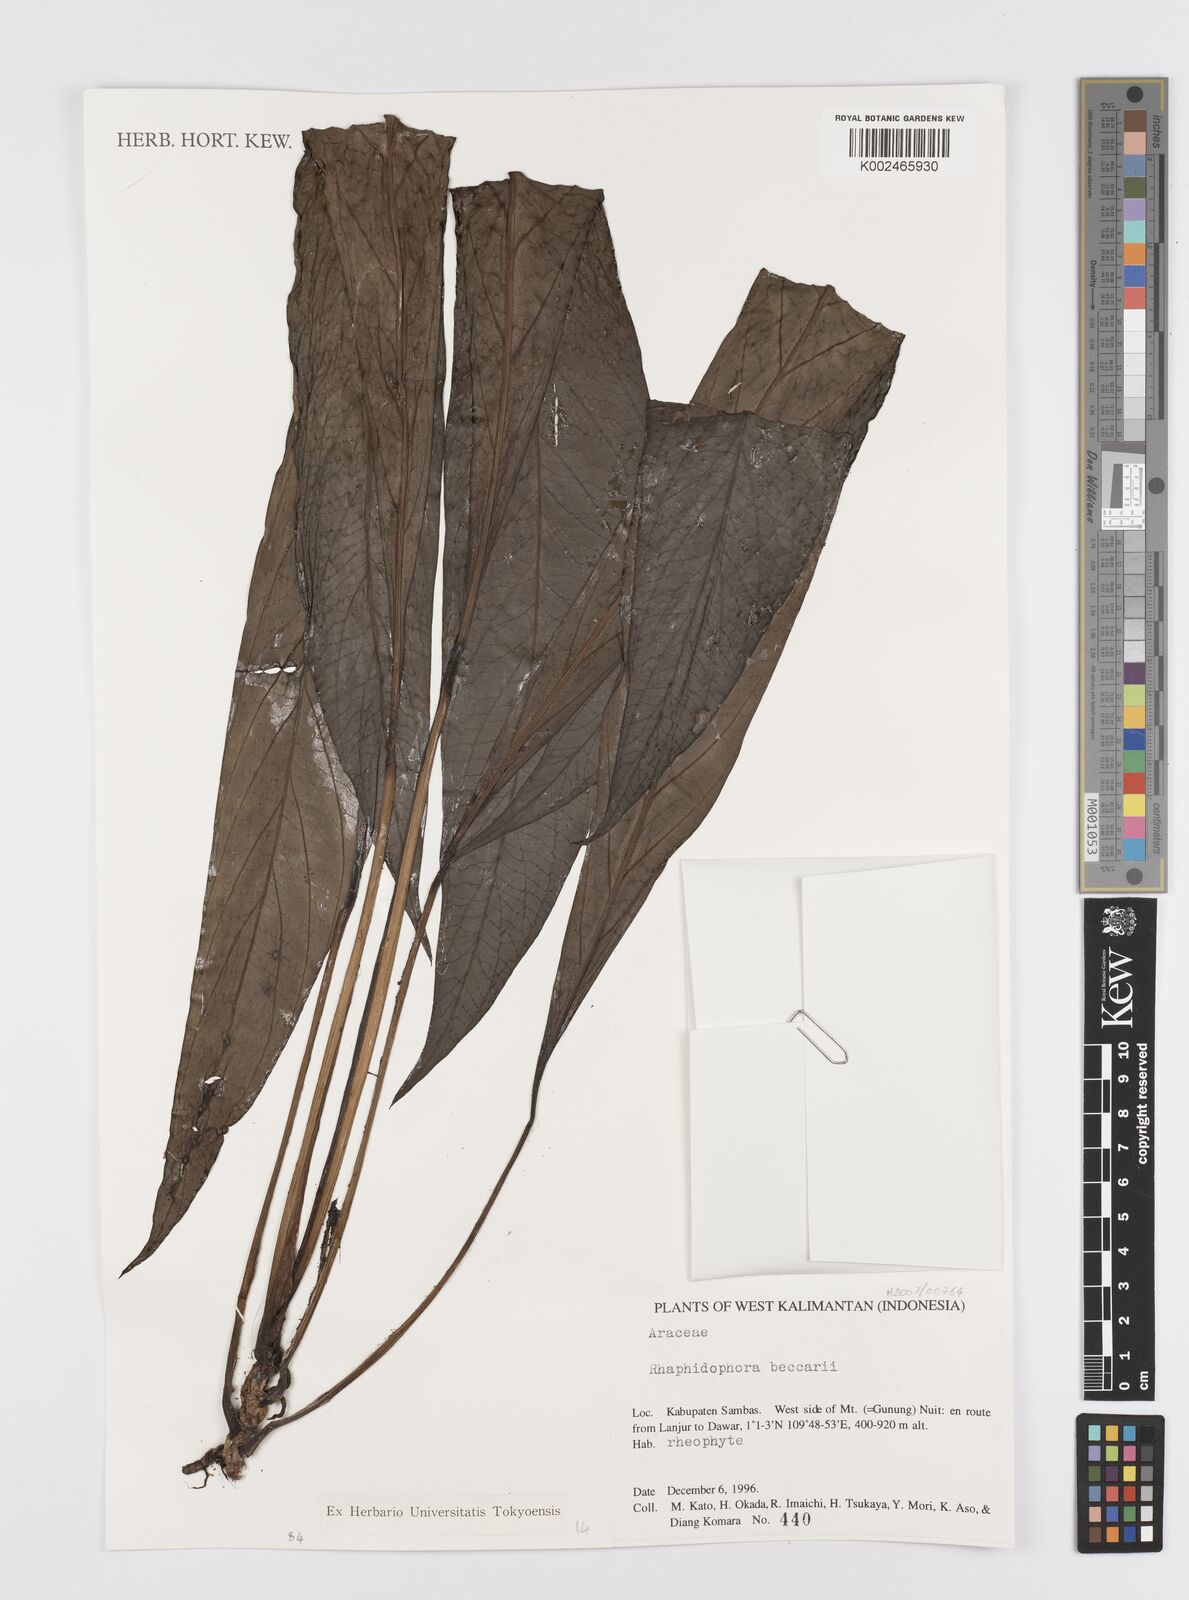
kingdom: Plantae
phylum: Tracheophyta
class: Liliopsida
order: Alismatales
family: Araceae
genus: Rhaphidophora
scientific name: Rhaphidophora beccarii
